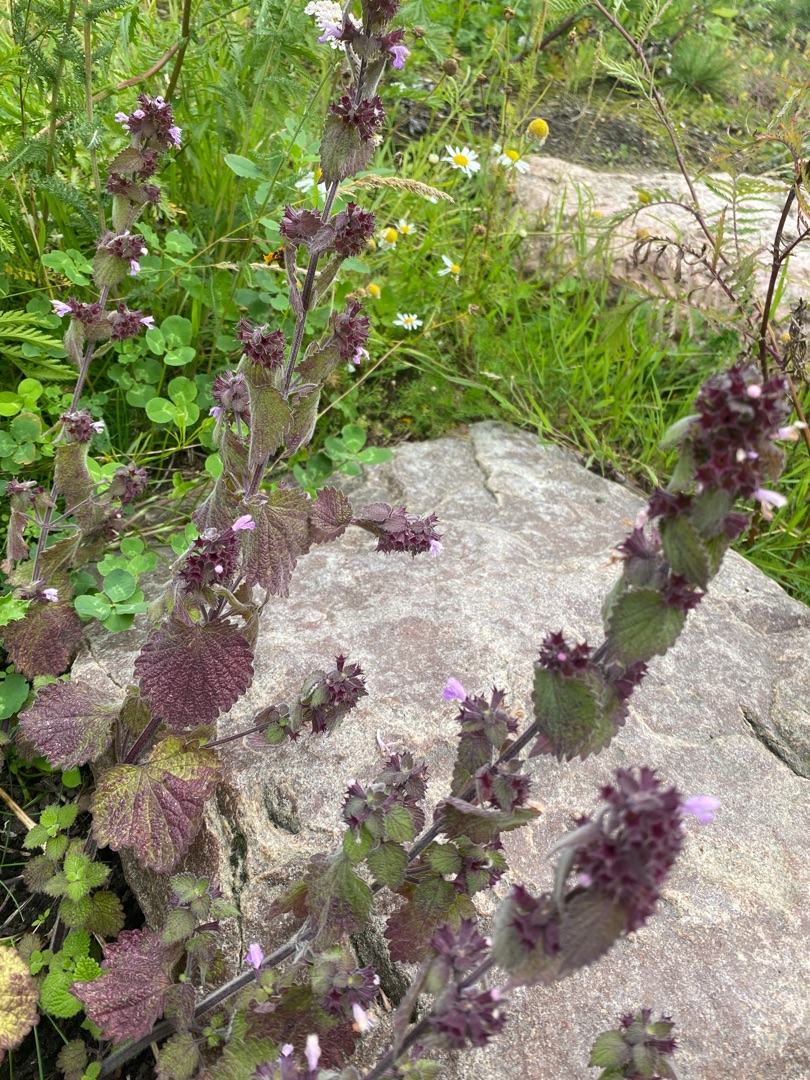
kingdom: Plantae
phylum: Tracheophyta
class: Magnoliopsida
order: Lamiales
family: Lamiaceae
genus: Ballota
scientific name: Ballota nigra
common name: Tandbæger
